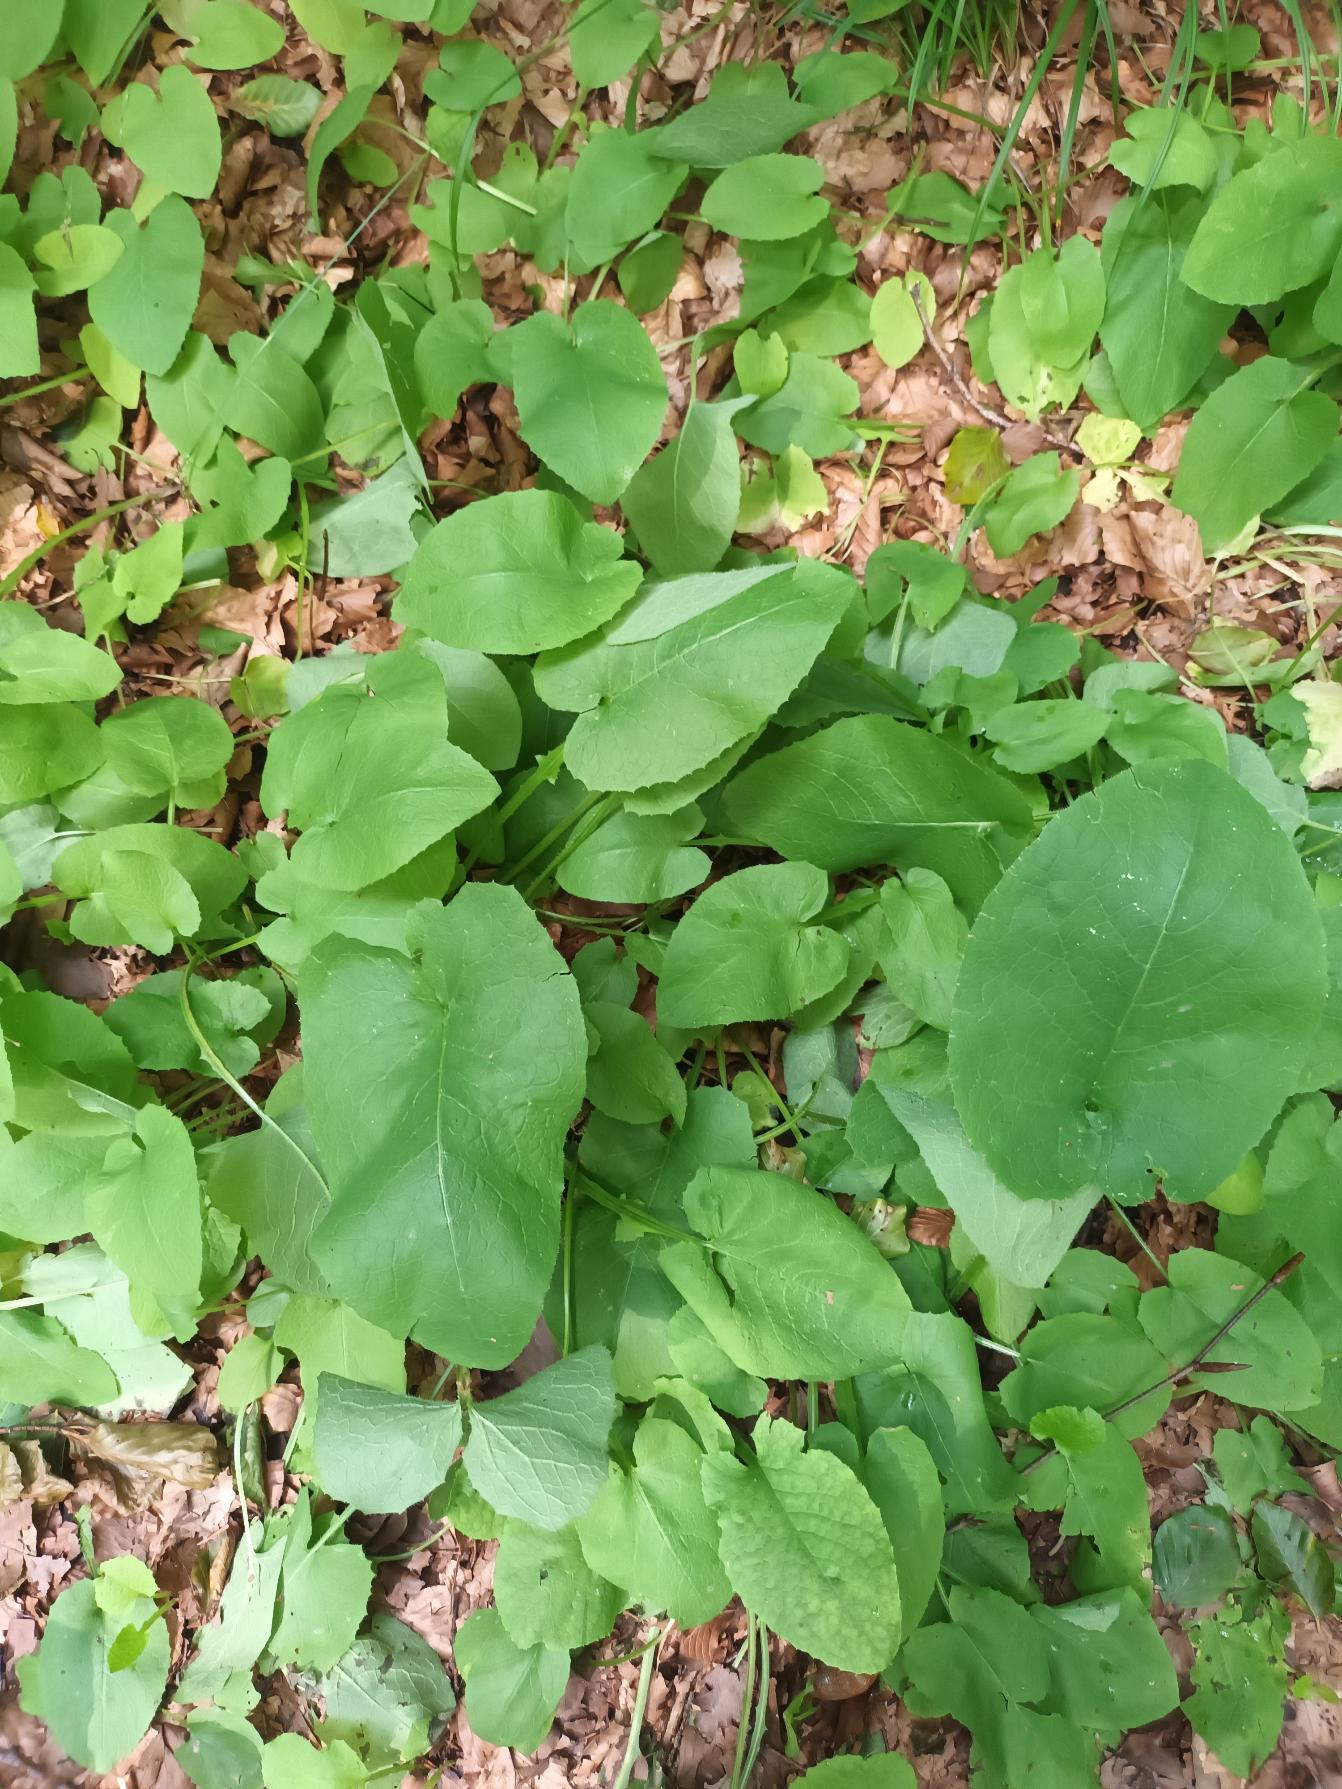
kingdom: Plantae
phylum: Tracheophyta
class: Magnoliopsida
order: Asterales
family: Asteraceae
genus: Lactuca
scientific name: Lactuca macrophylla
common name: Kæmpe-salat
